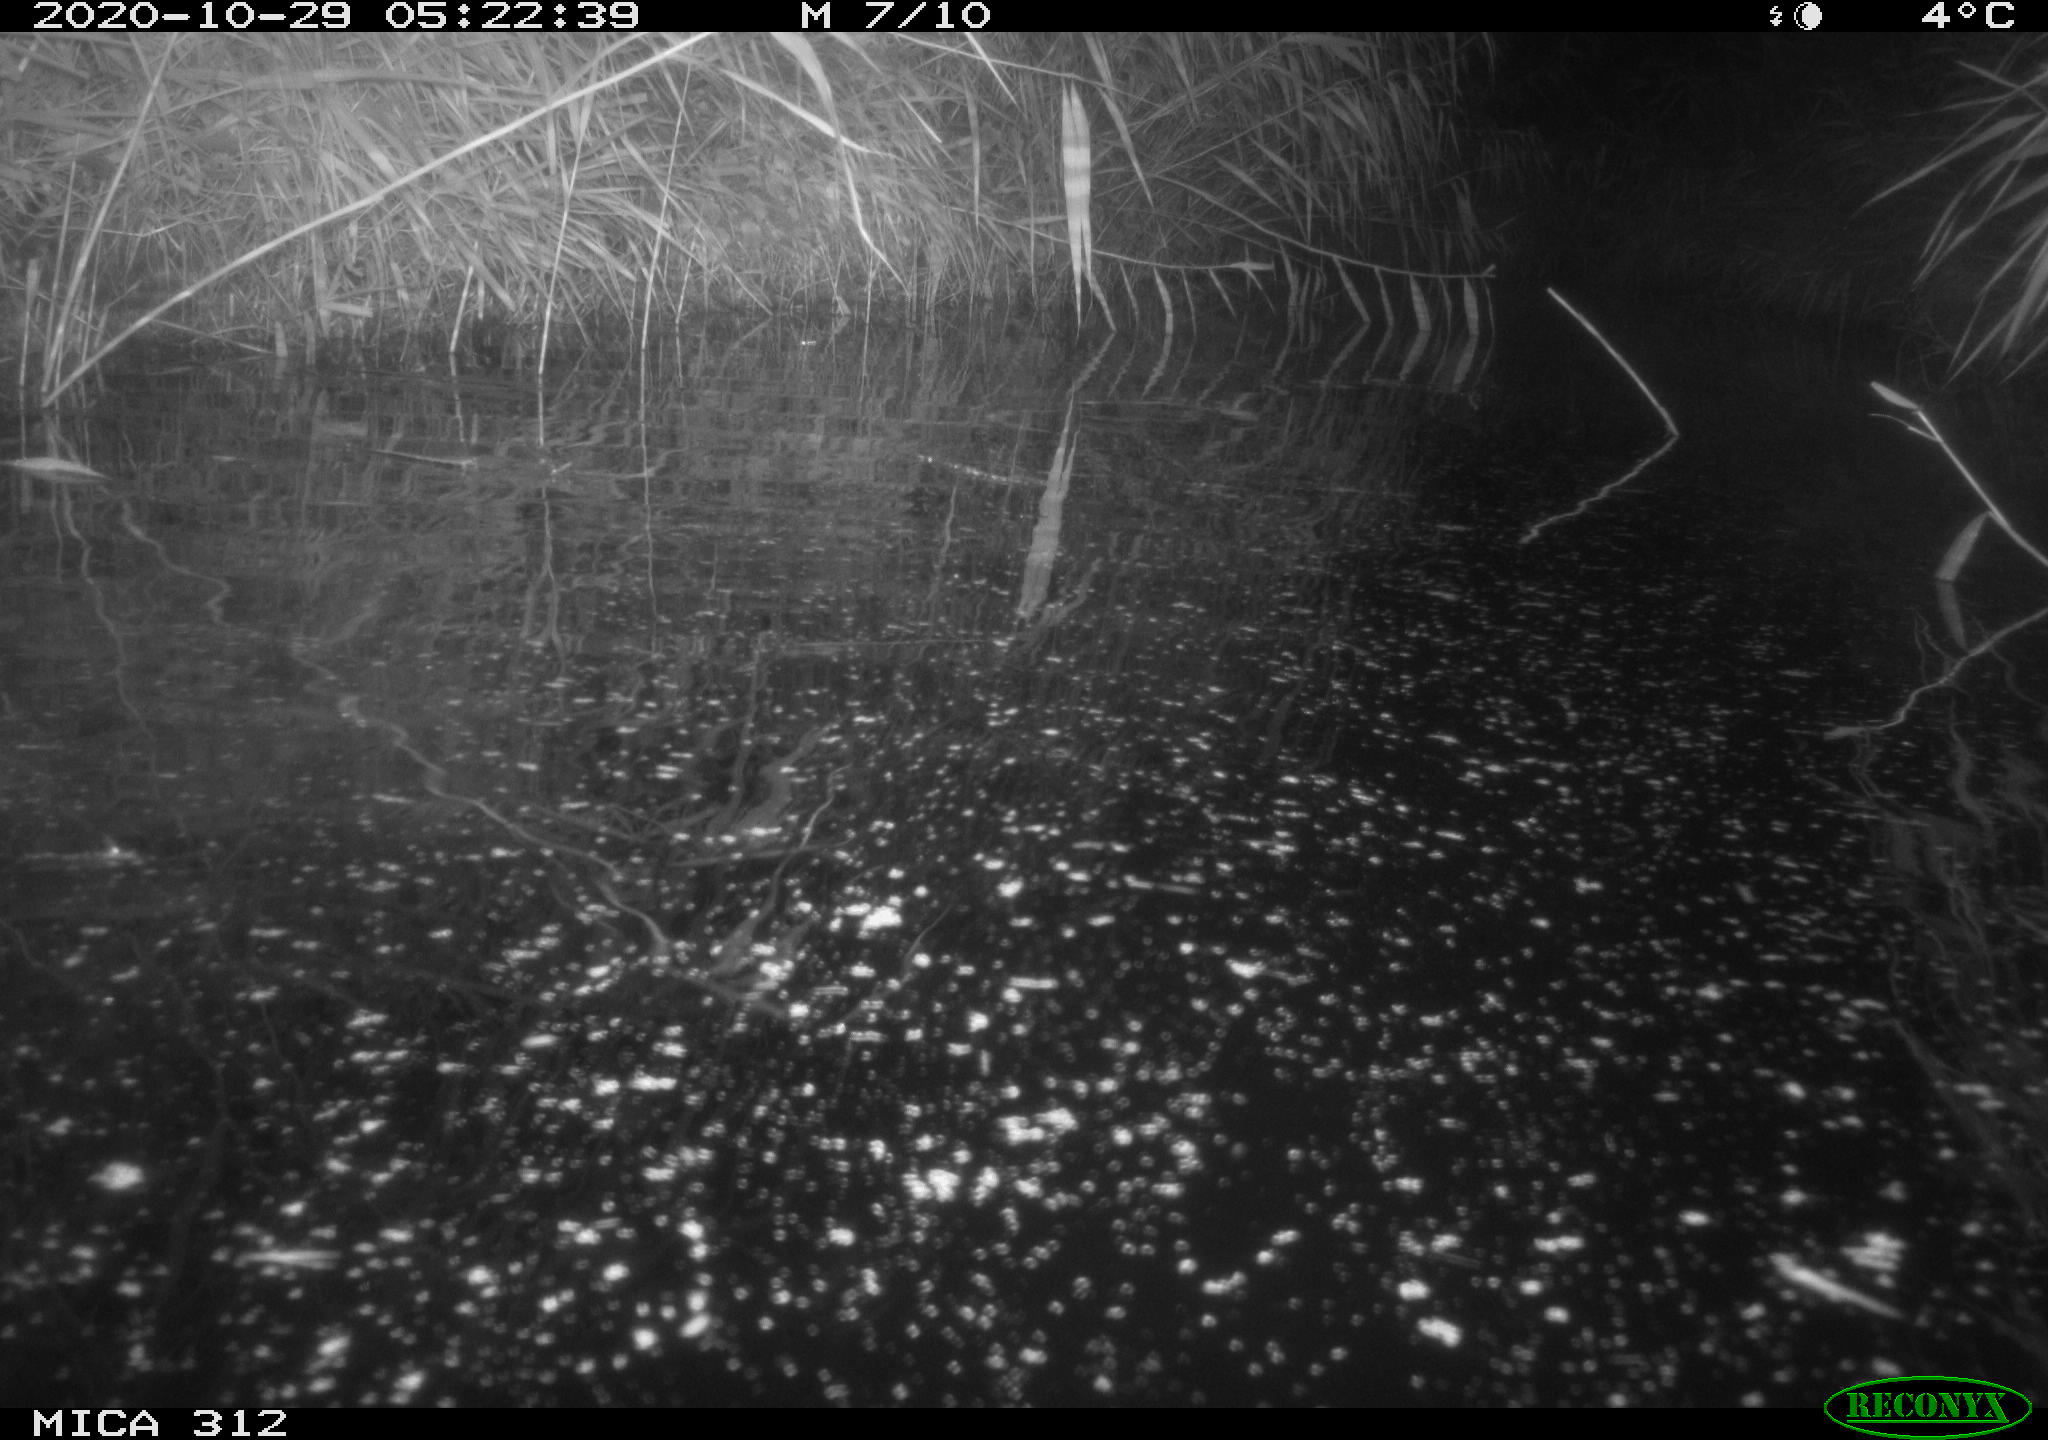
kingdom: Animalia
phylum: Chordata
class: Mammalia
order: Rodentia
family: Muridae
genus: Rattus
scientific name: Rattus norvegicus
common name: Brown rat
